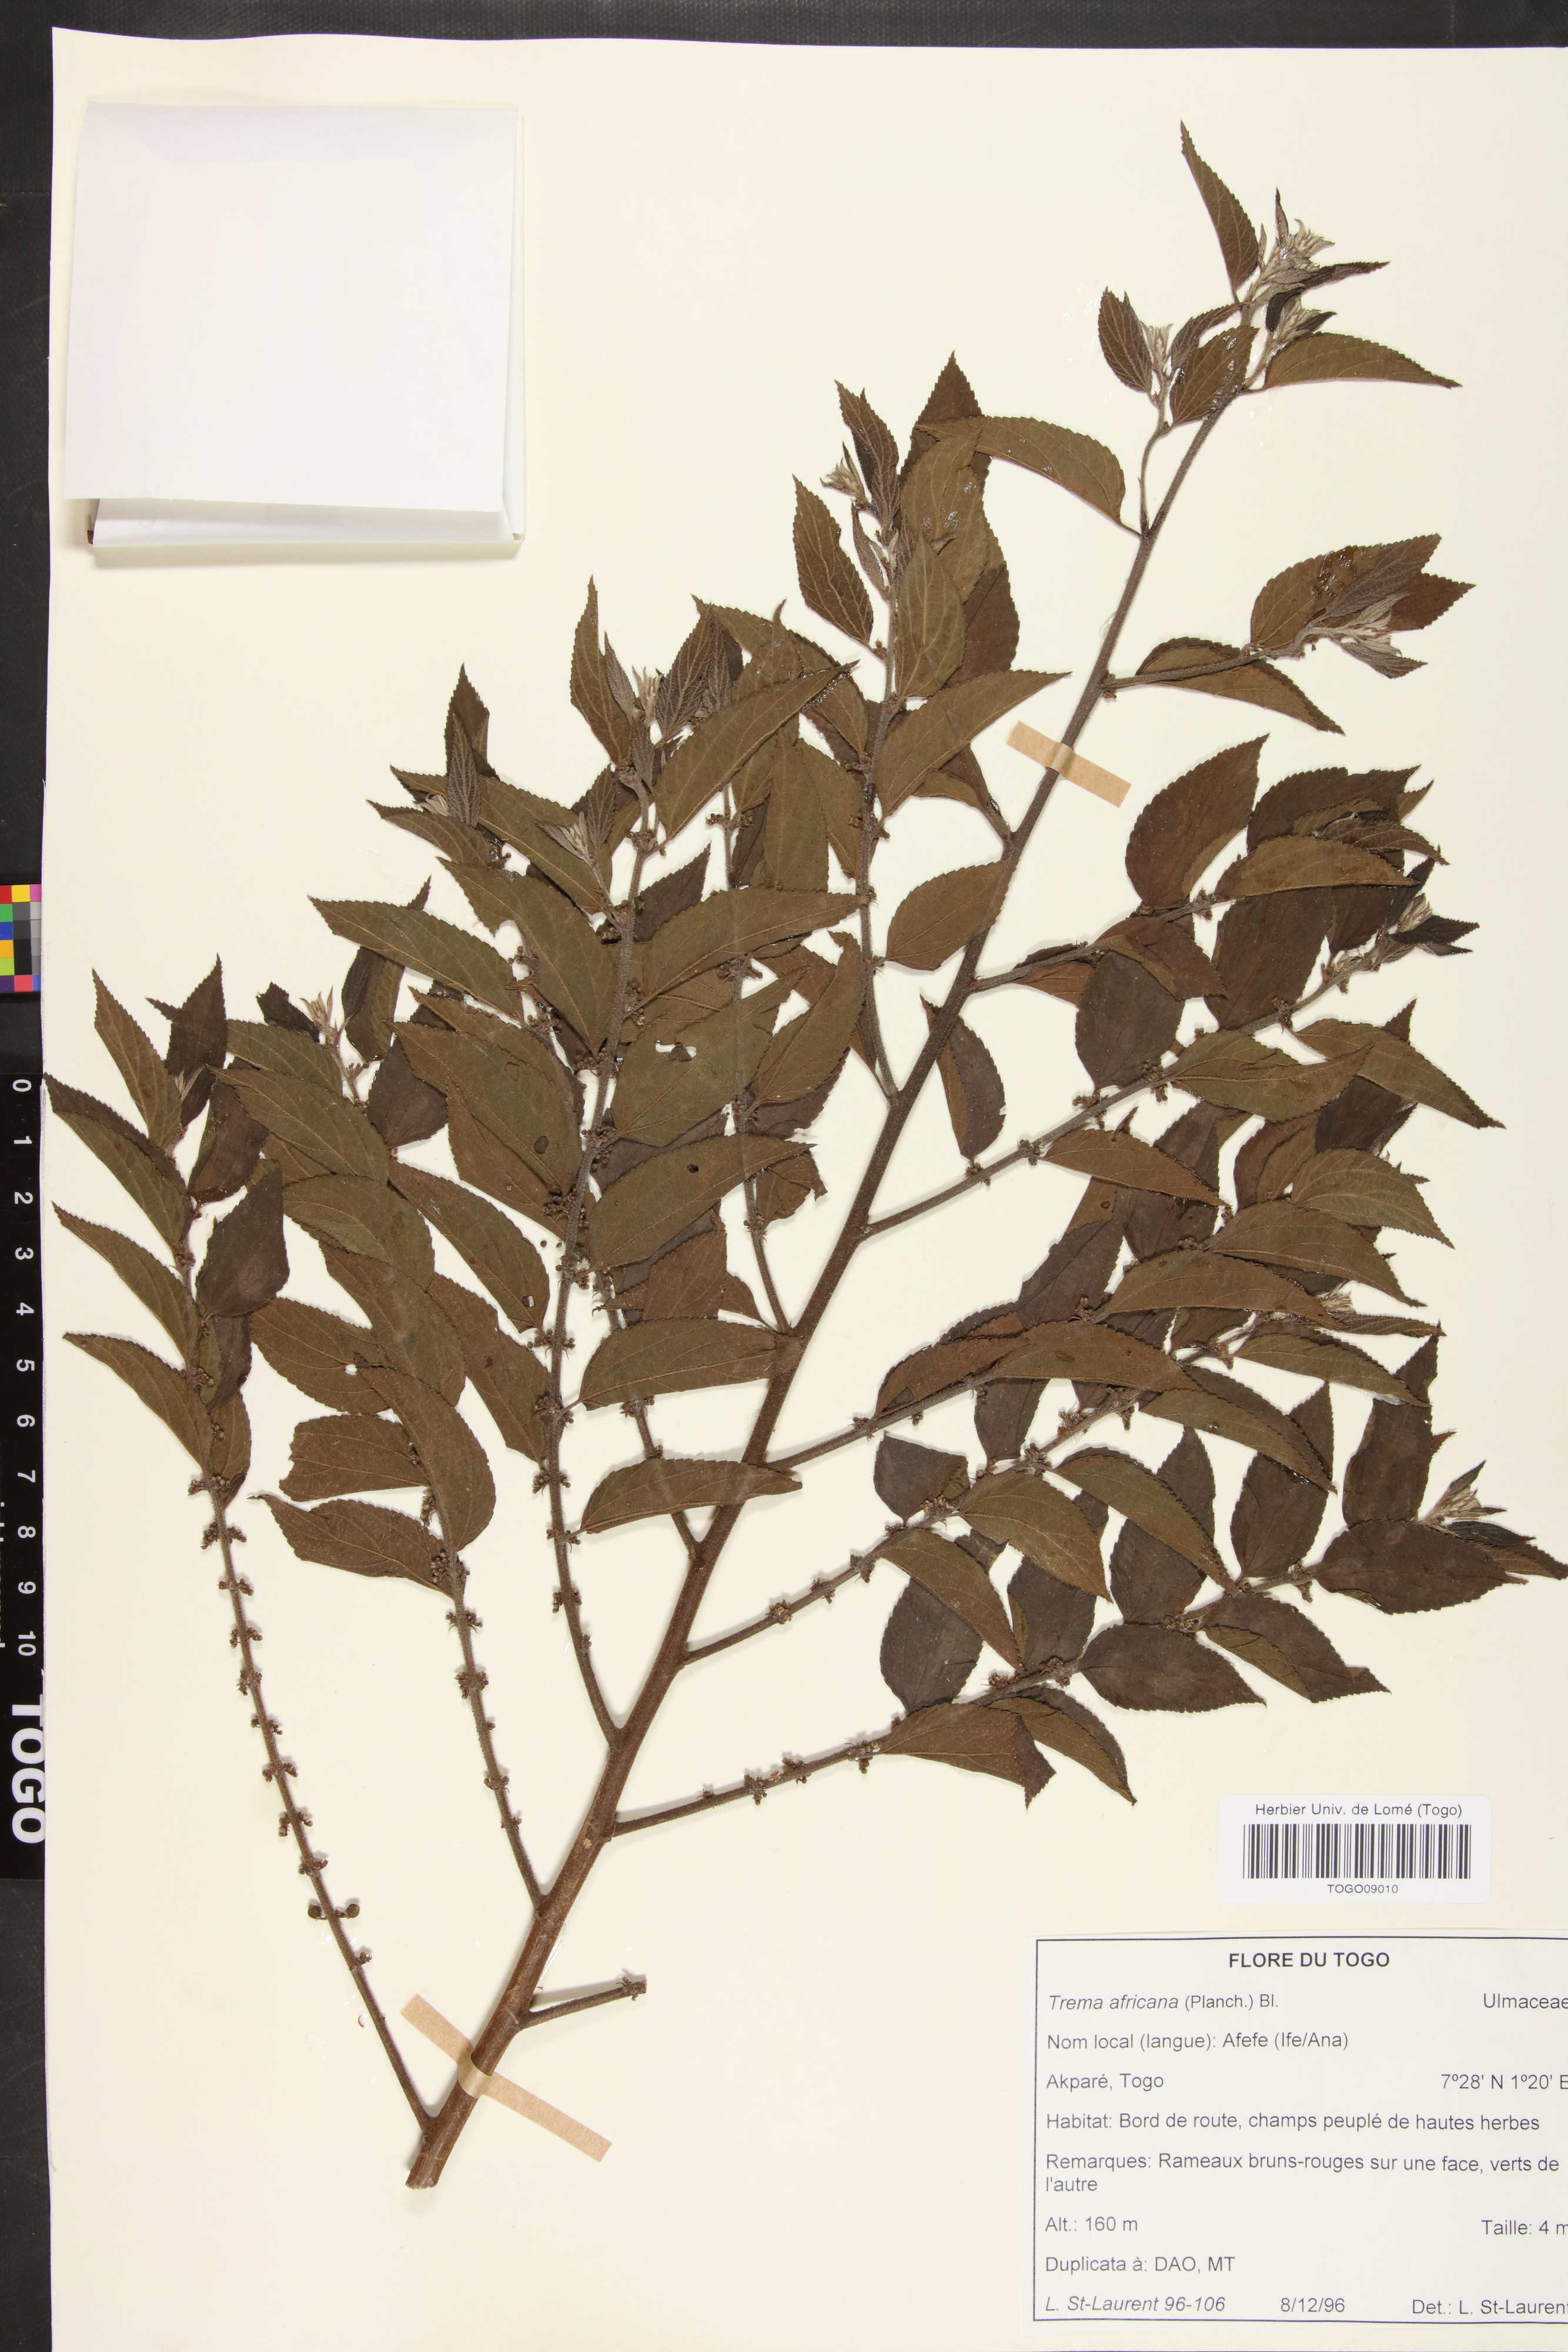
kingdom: Plantae
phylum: Tracheophyta
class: Magnoliopsida
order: Rosales
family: Cannabaceae
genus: Trema
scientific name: Trema orientale
